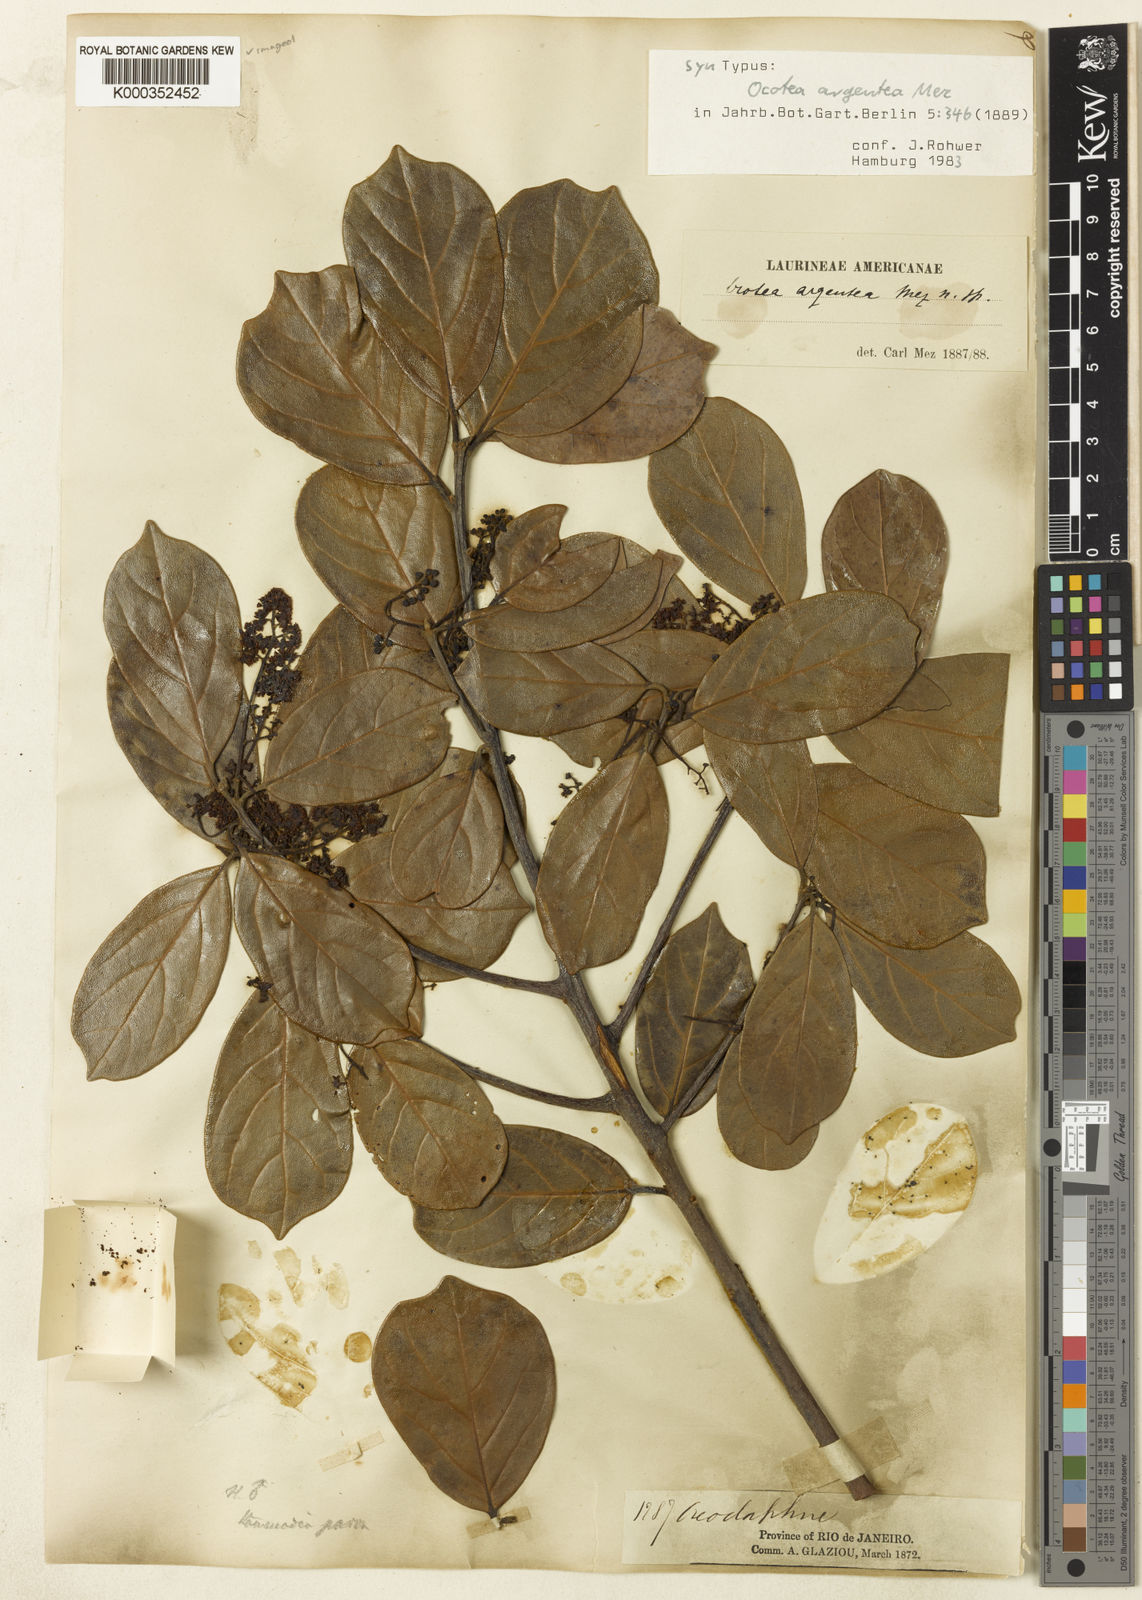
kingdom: Plantae
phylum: Tracheophyta
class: Magnoliopsida
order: Laurales
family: Lauraceae
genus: Ocotea
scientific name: Ocotea argentea
